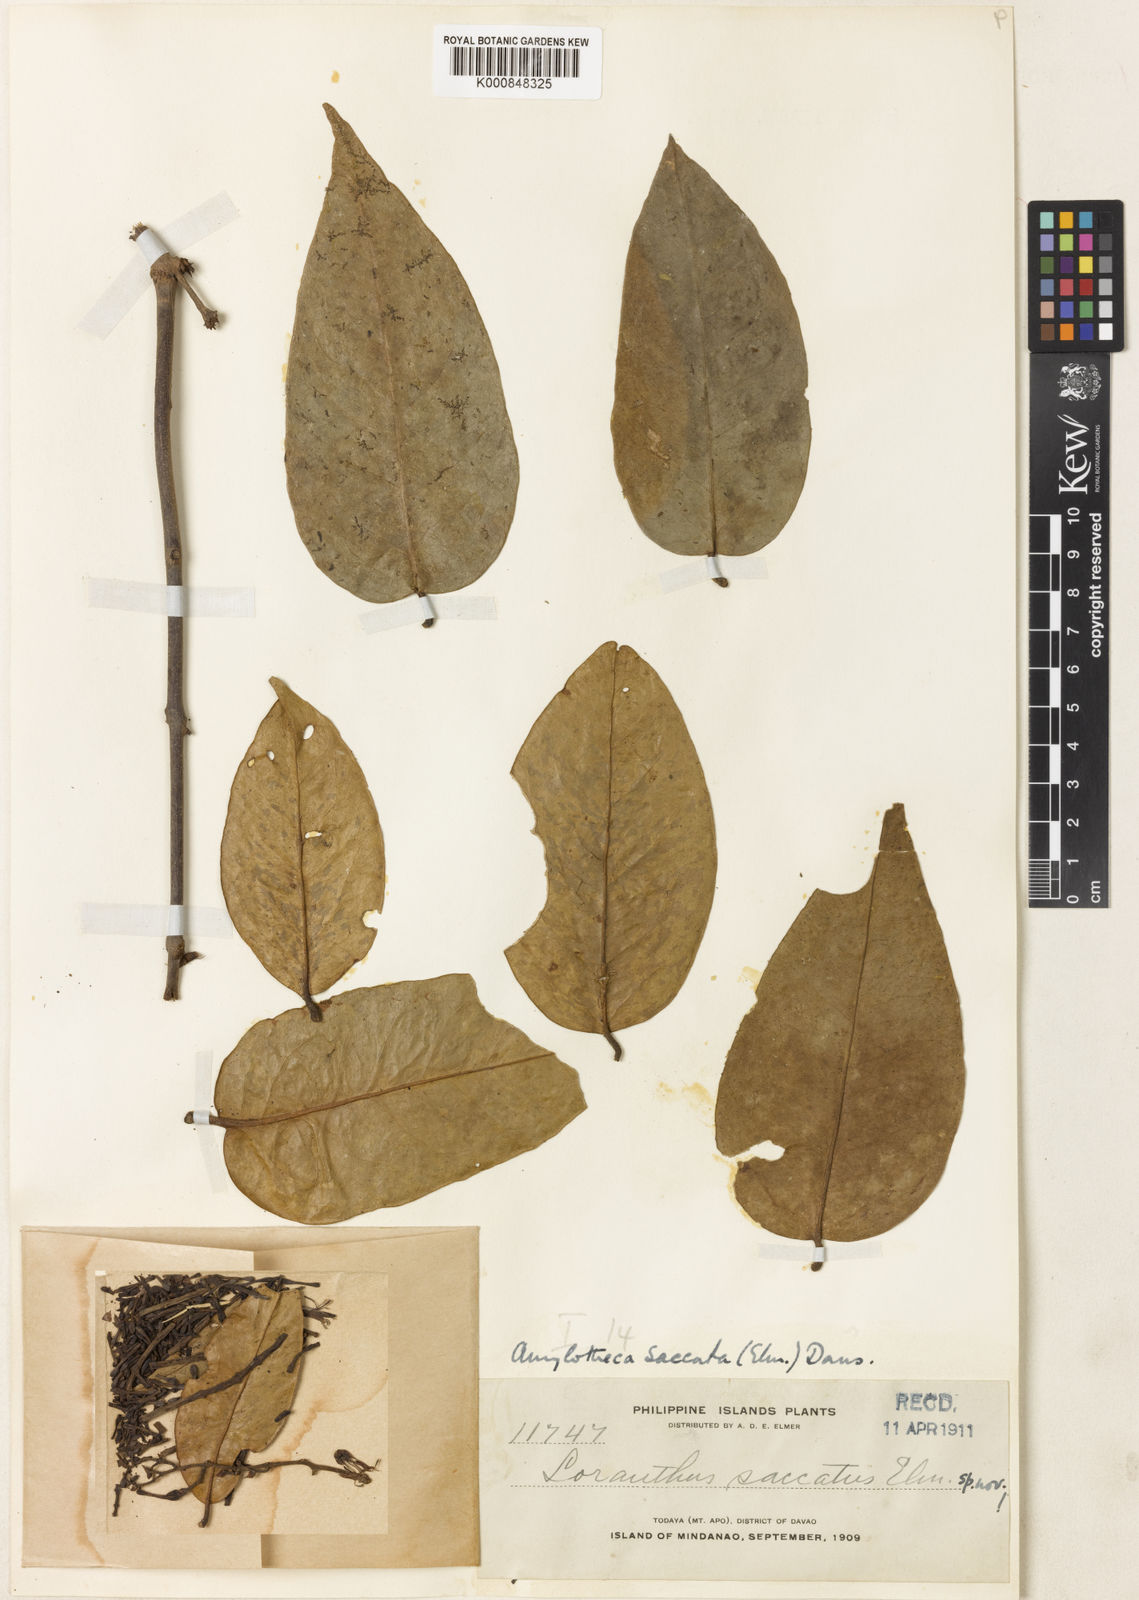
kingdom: Plantae
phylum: Tracheophyta
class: Magnoliopsida
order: Santalales
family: Loranthaceae
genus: Decaisnina
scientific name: Decaisnina aherniana
